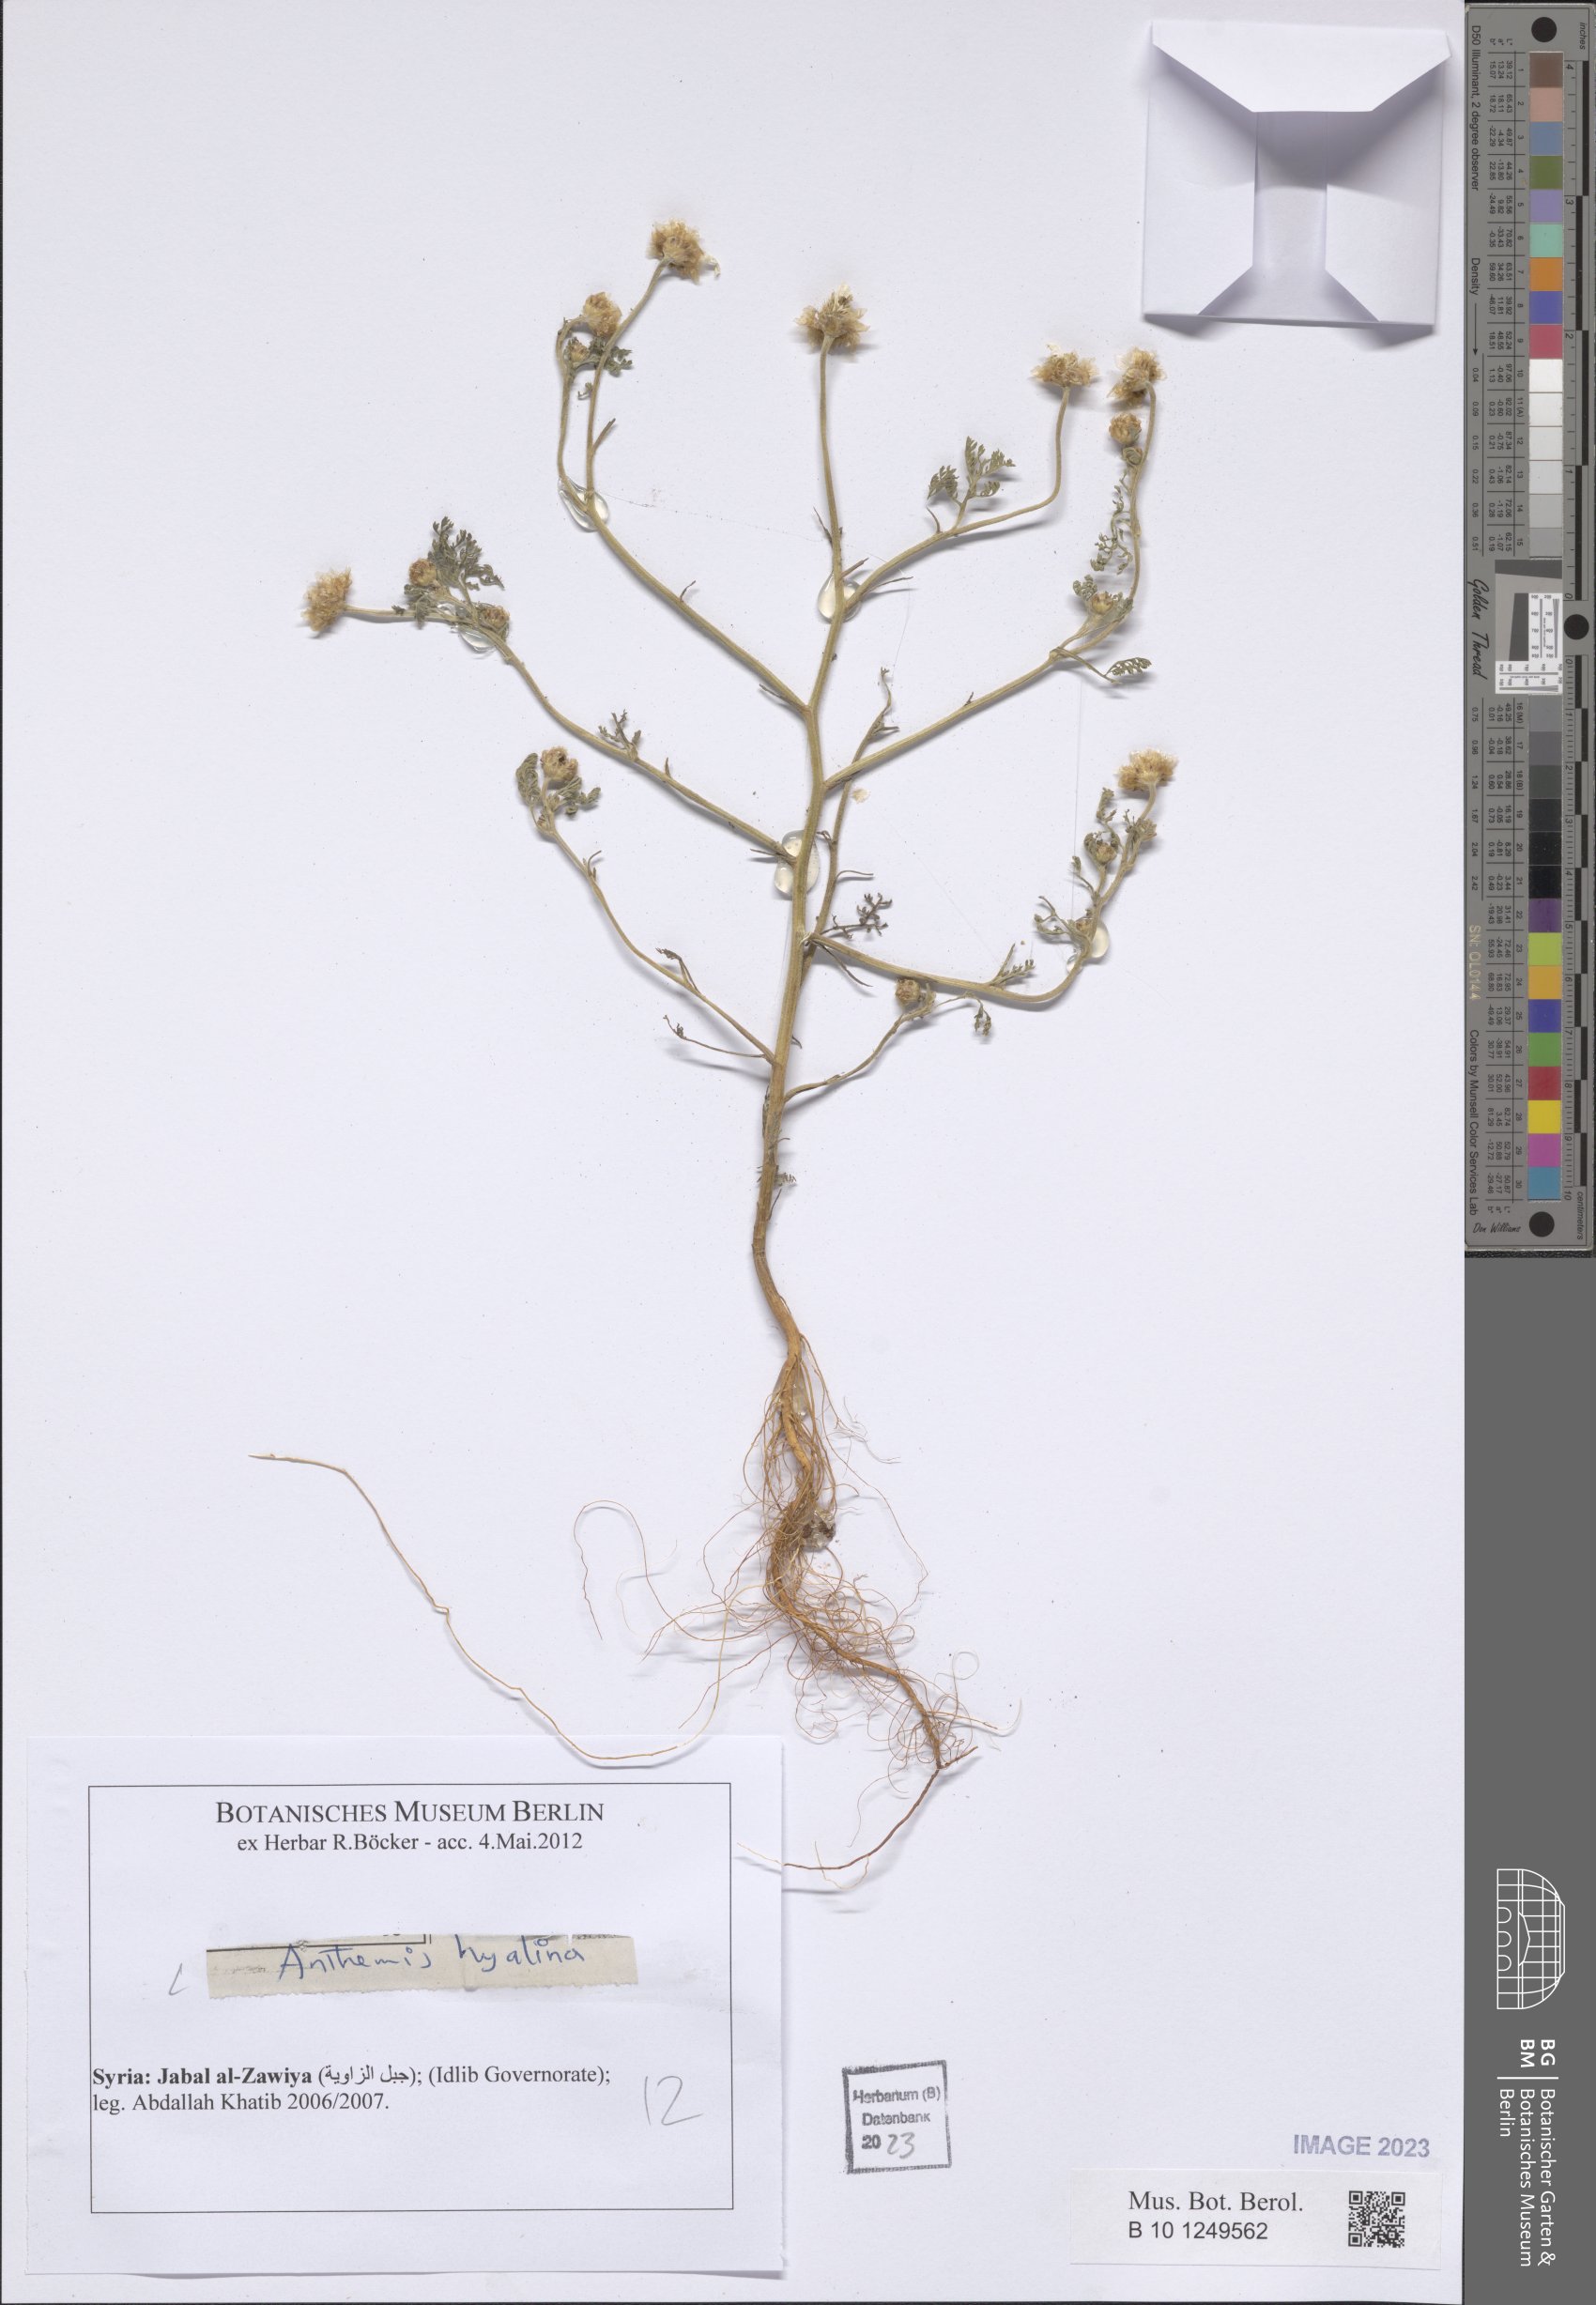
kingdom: Plantae
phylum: Tracheophyta
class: Magnoliopsida
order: Asterales
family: Asteraceae
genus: Anthemis
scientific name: Anthemis hyalina
